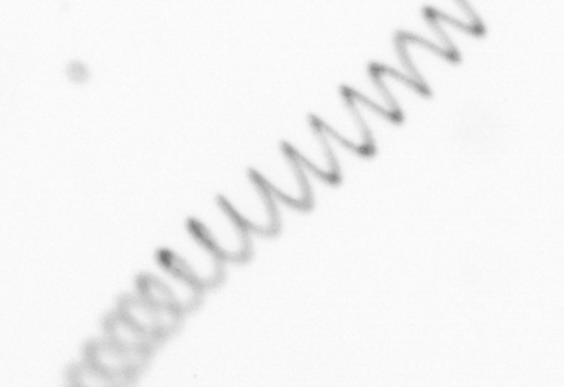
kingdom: Chromista
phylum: Ochrophyta
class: Bacillariophyceae
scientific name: Bacillariophyceae
